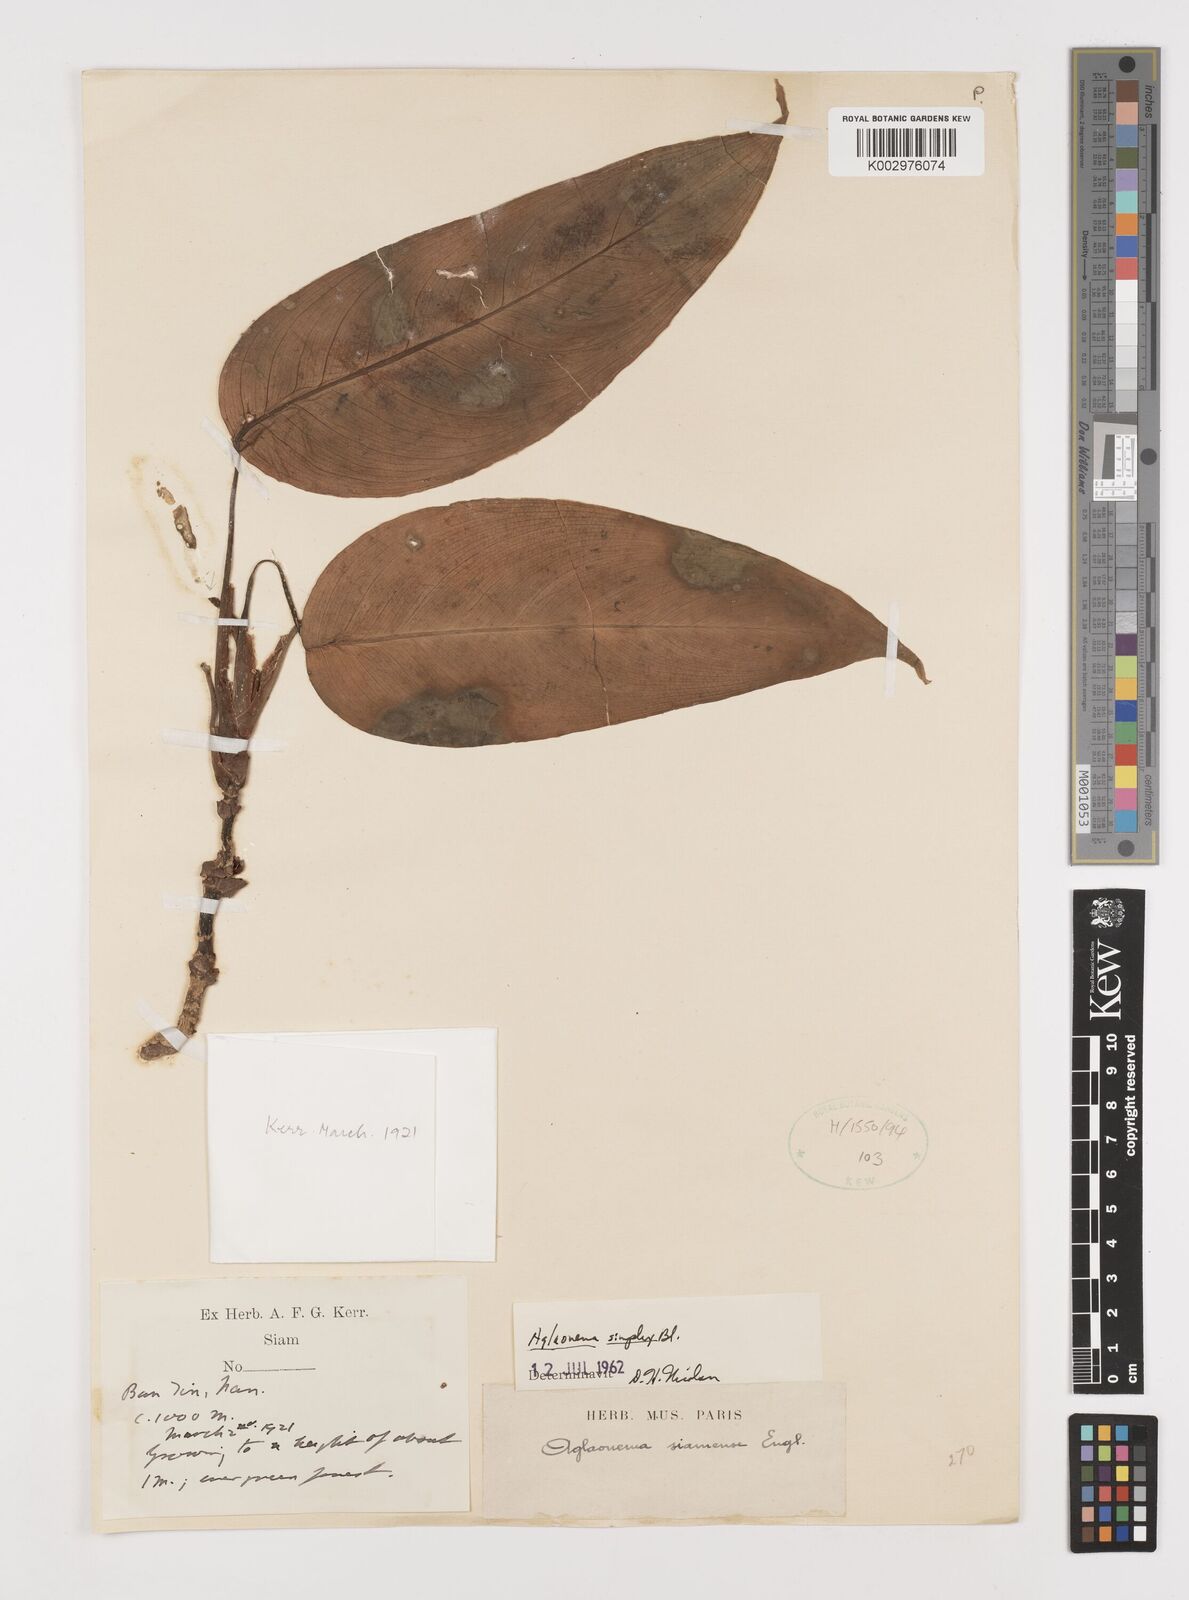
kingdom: Plantae
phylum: Tracheophyta
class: Liliopsida
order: Alismatales
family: Araceae
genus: Aglaonema
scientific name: Aglaonema simplex
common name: Malayan-sword
